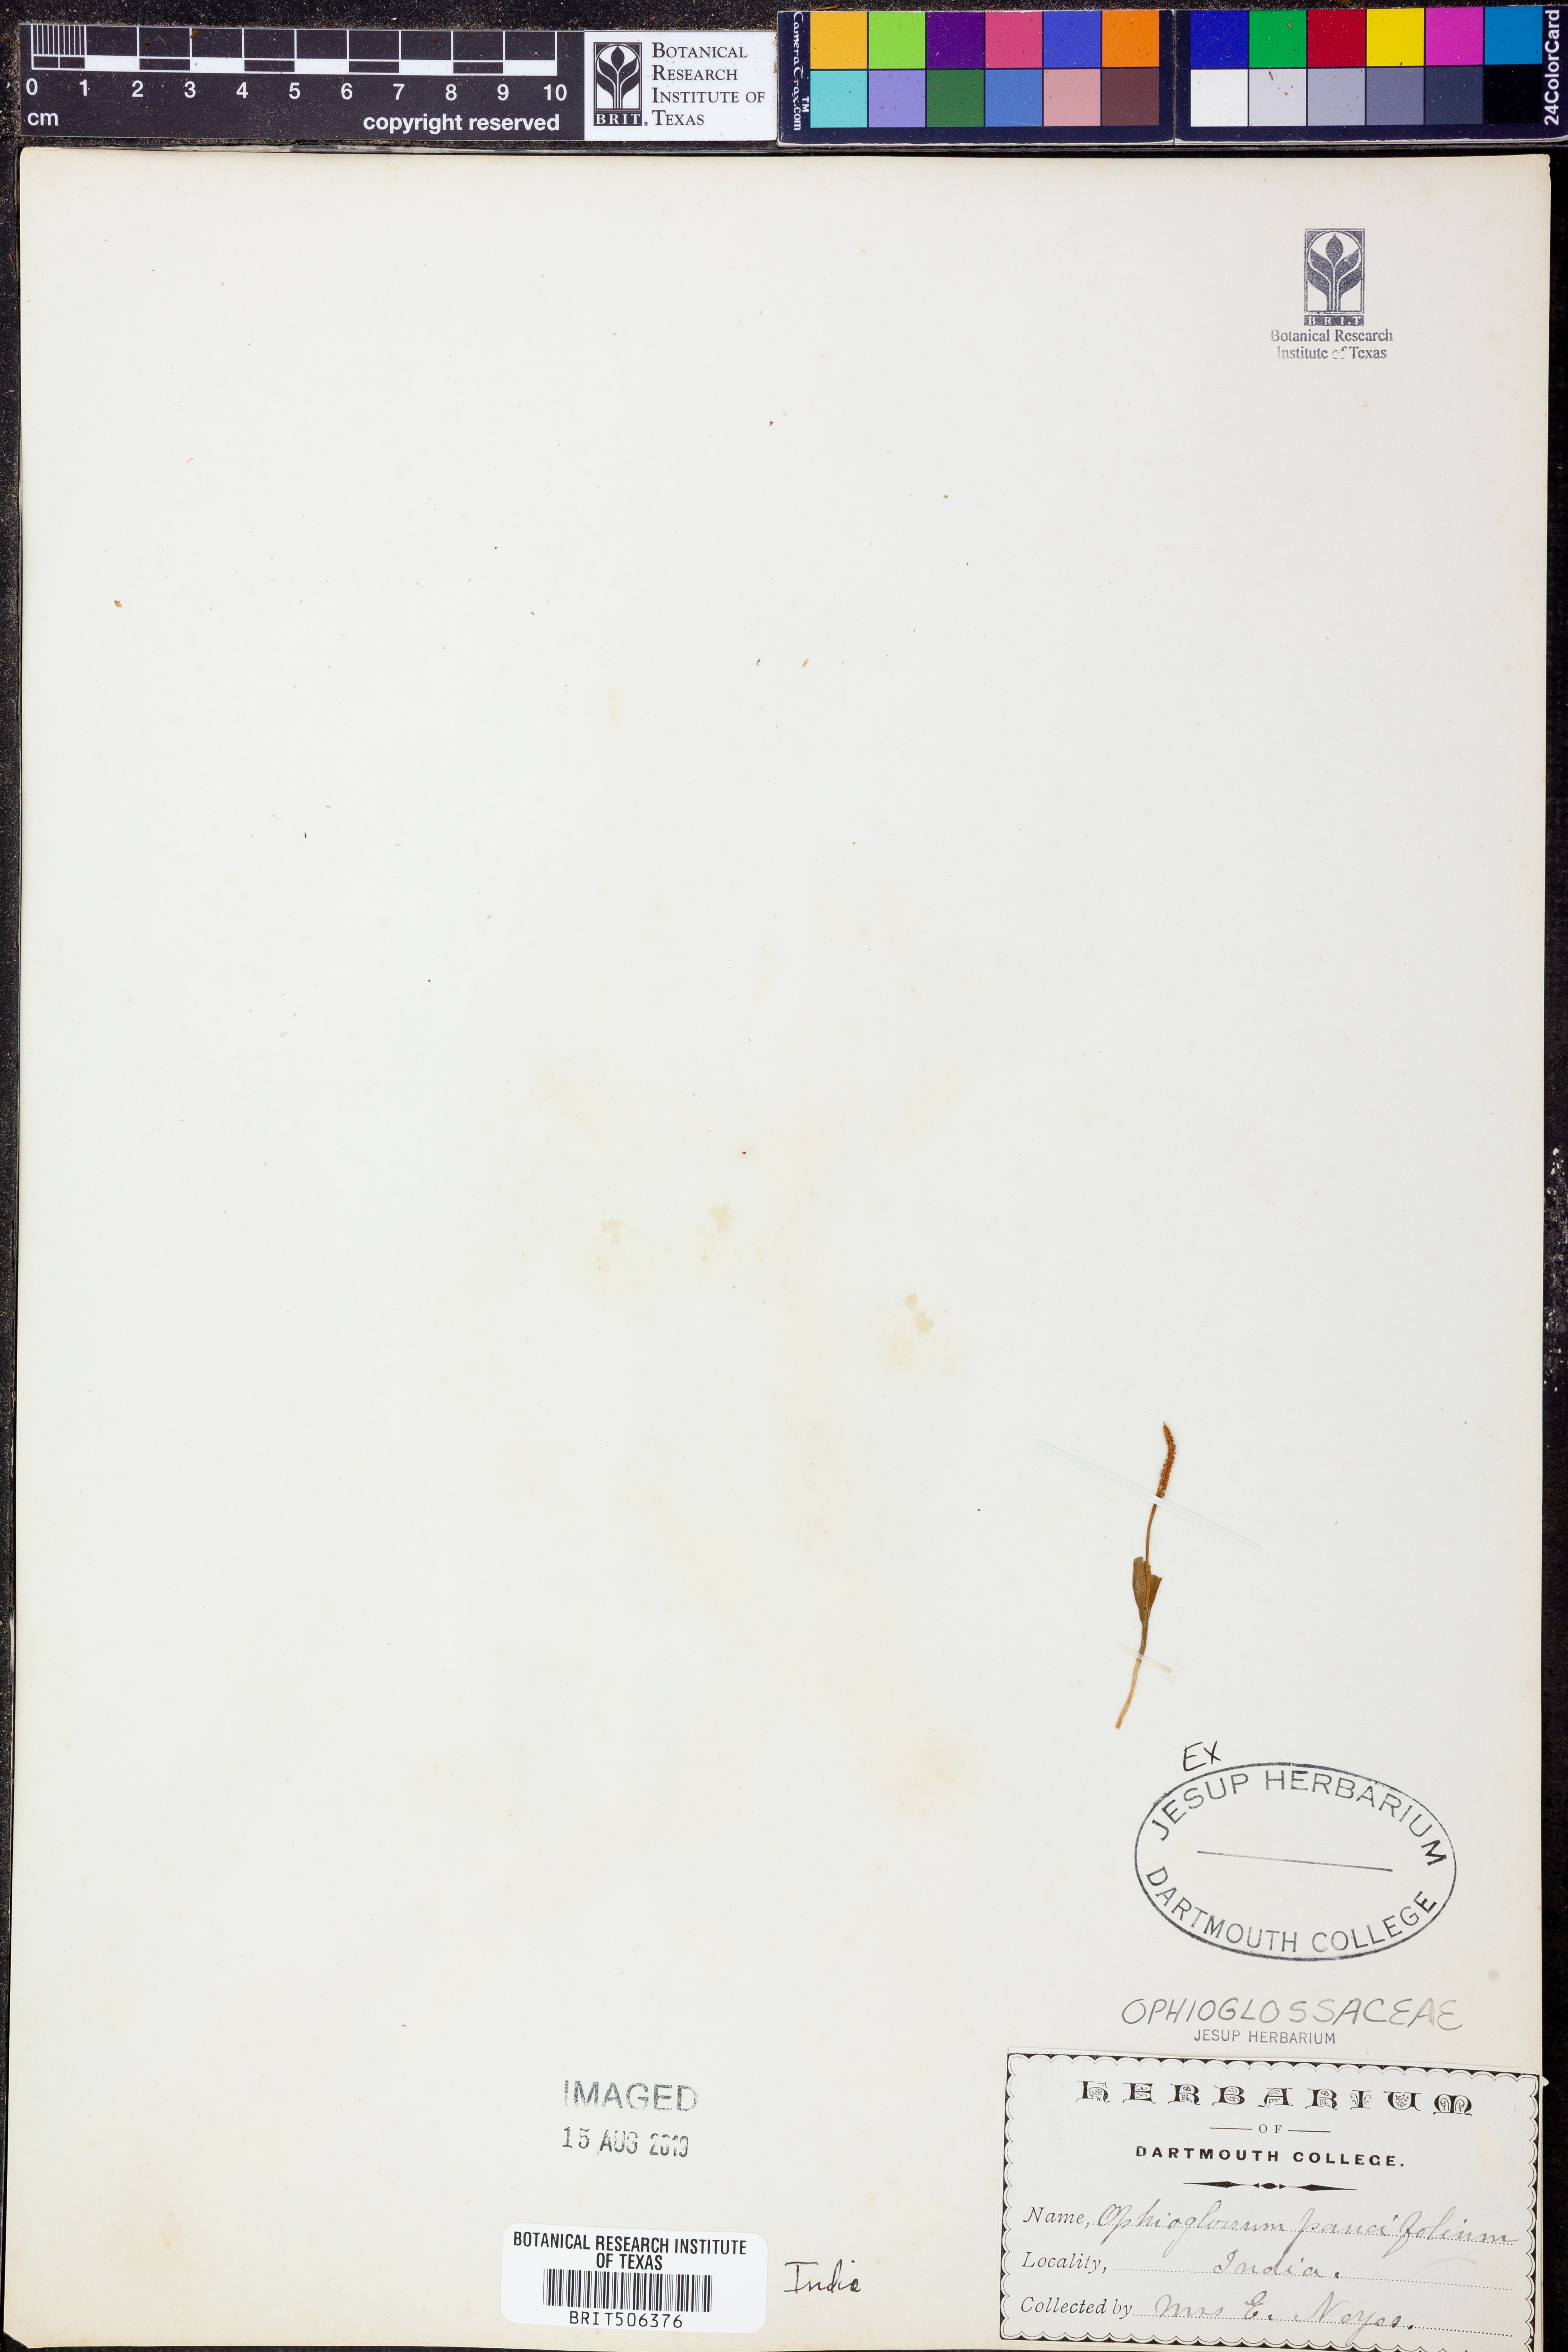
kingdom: Plantae
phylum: Tracheophyta
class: Polypodiopsida
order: Ophioglossales
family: Ophioglossaceae
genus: Ophioglossum
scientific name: Ophioglossum parvifolium
